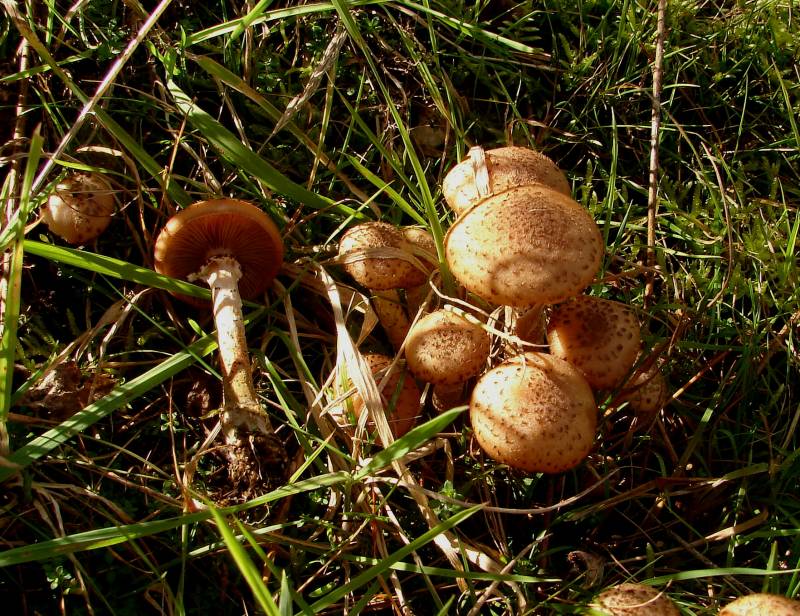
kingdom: Fungi
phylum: Basidiomycota
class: Agaricomycetes
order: Agaricales
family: Physalacriaceae
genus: Armillaria
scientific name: Armillaria ostoyae
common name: mørk honningsvamp
